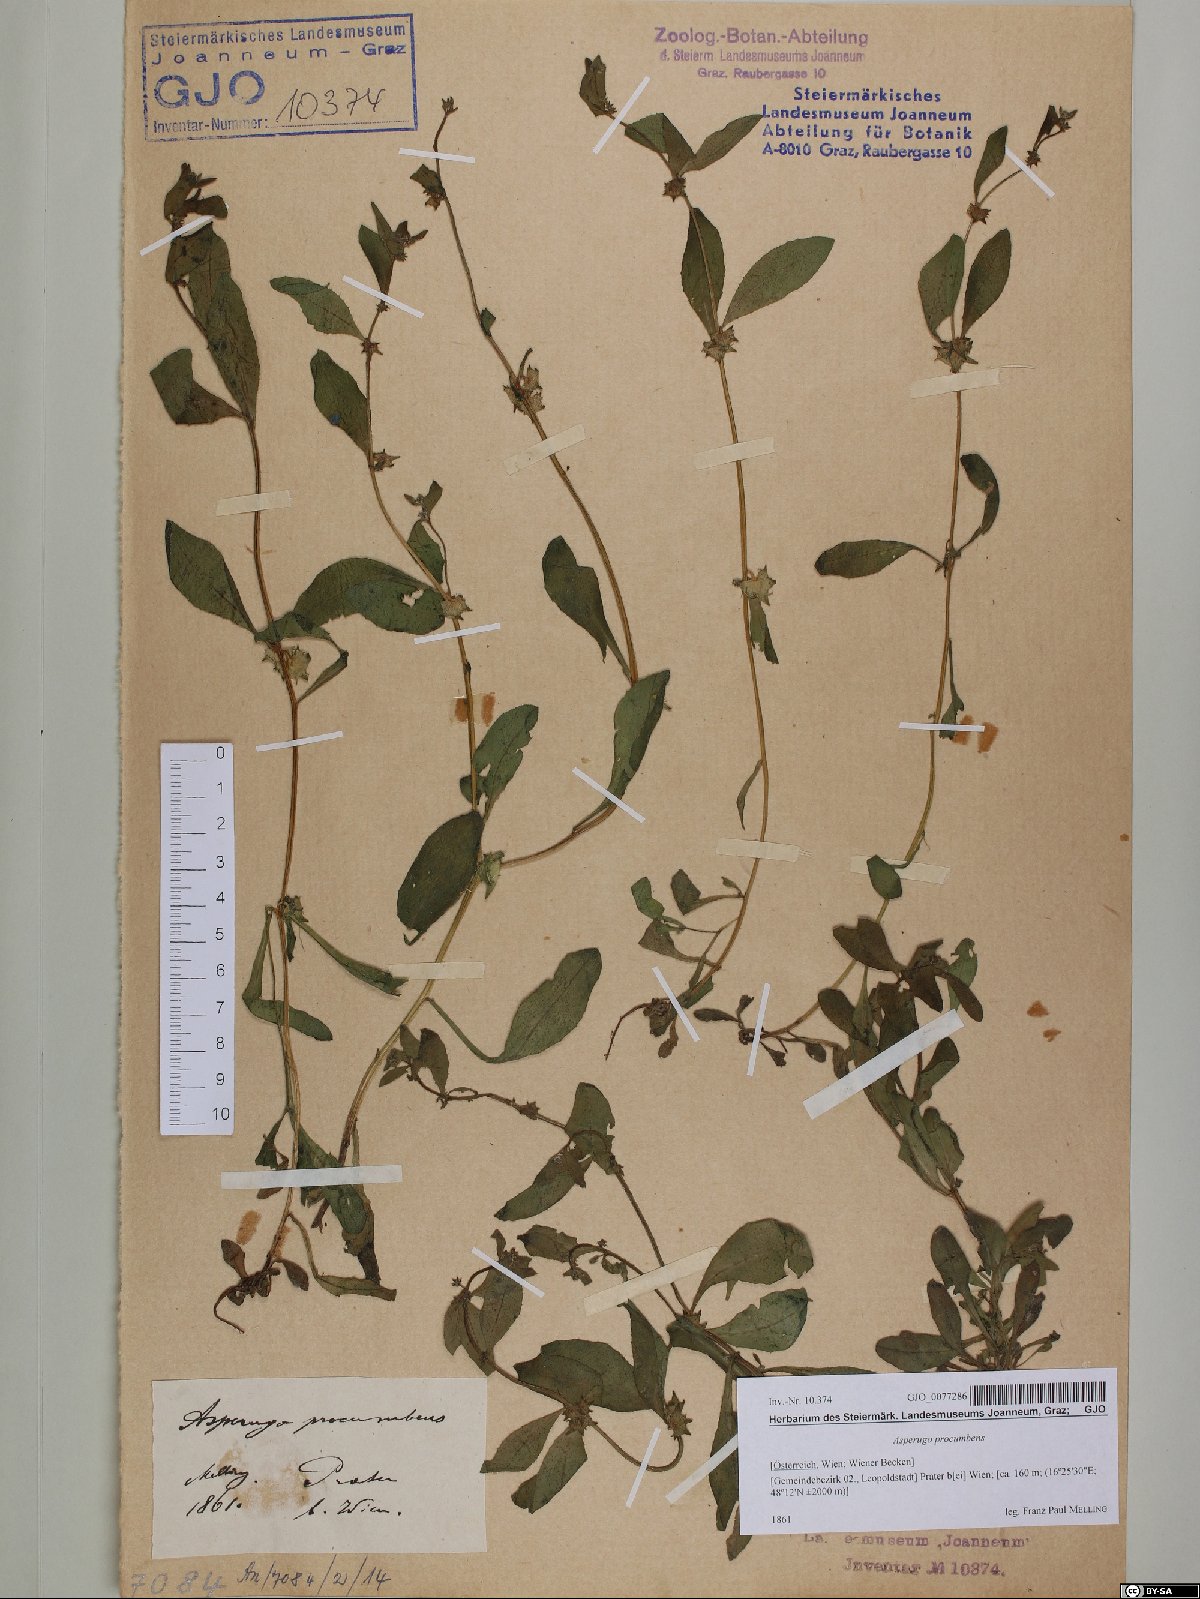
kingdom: Plantae
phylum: Tracheophyta
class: Magnoliopsida
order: Boraginales
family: Boraginaceae
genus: Asperugo
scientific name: Asperugo procumbens
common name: Madwort
